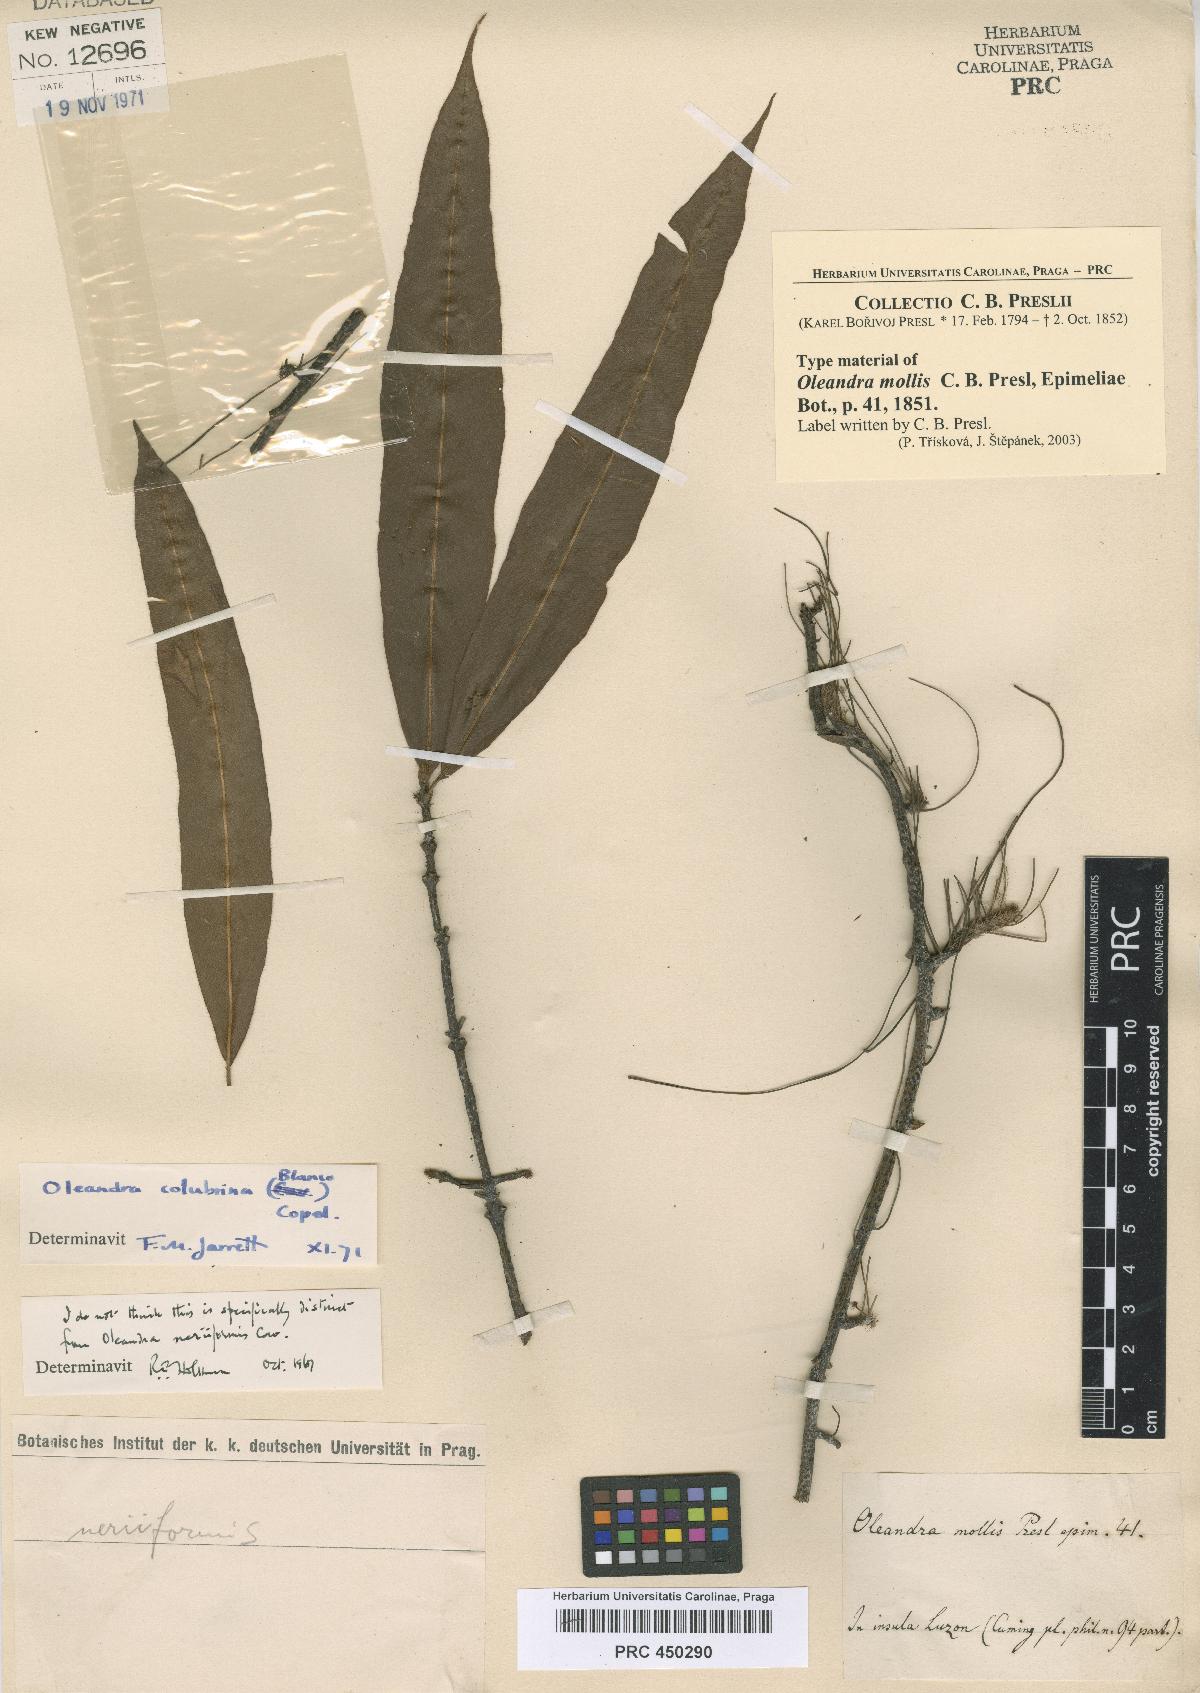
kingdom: Plantae
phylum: Tracheophyta
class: Polypodiopsida
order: Polypodiales
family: Oleandraceae
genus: Oleandra
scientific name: Oleandra neriiformis
